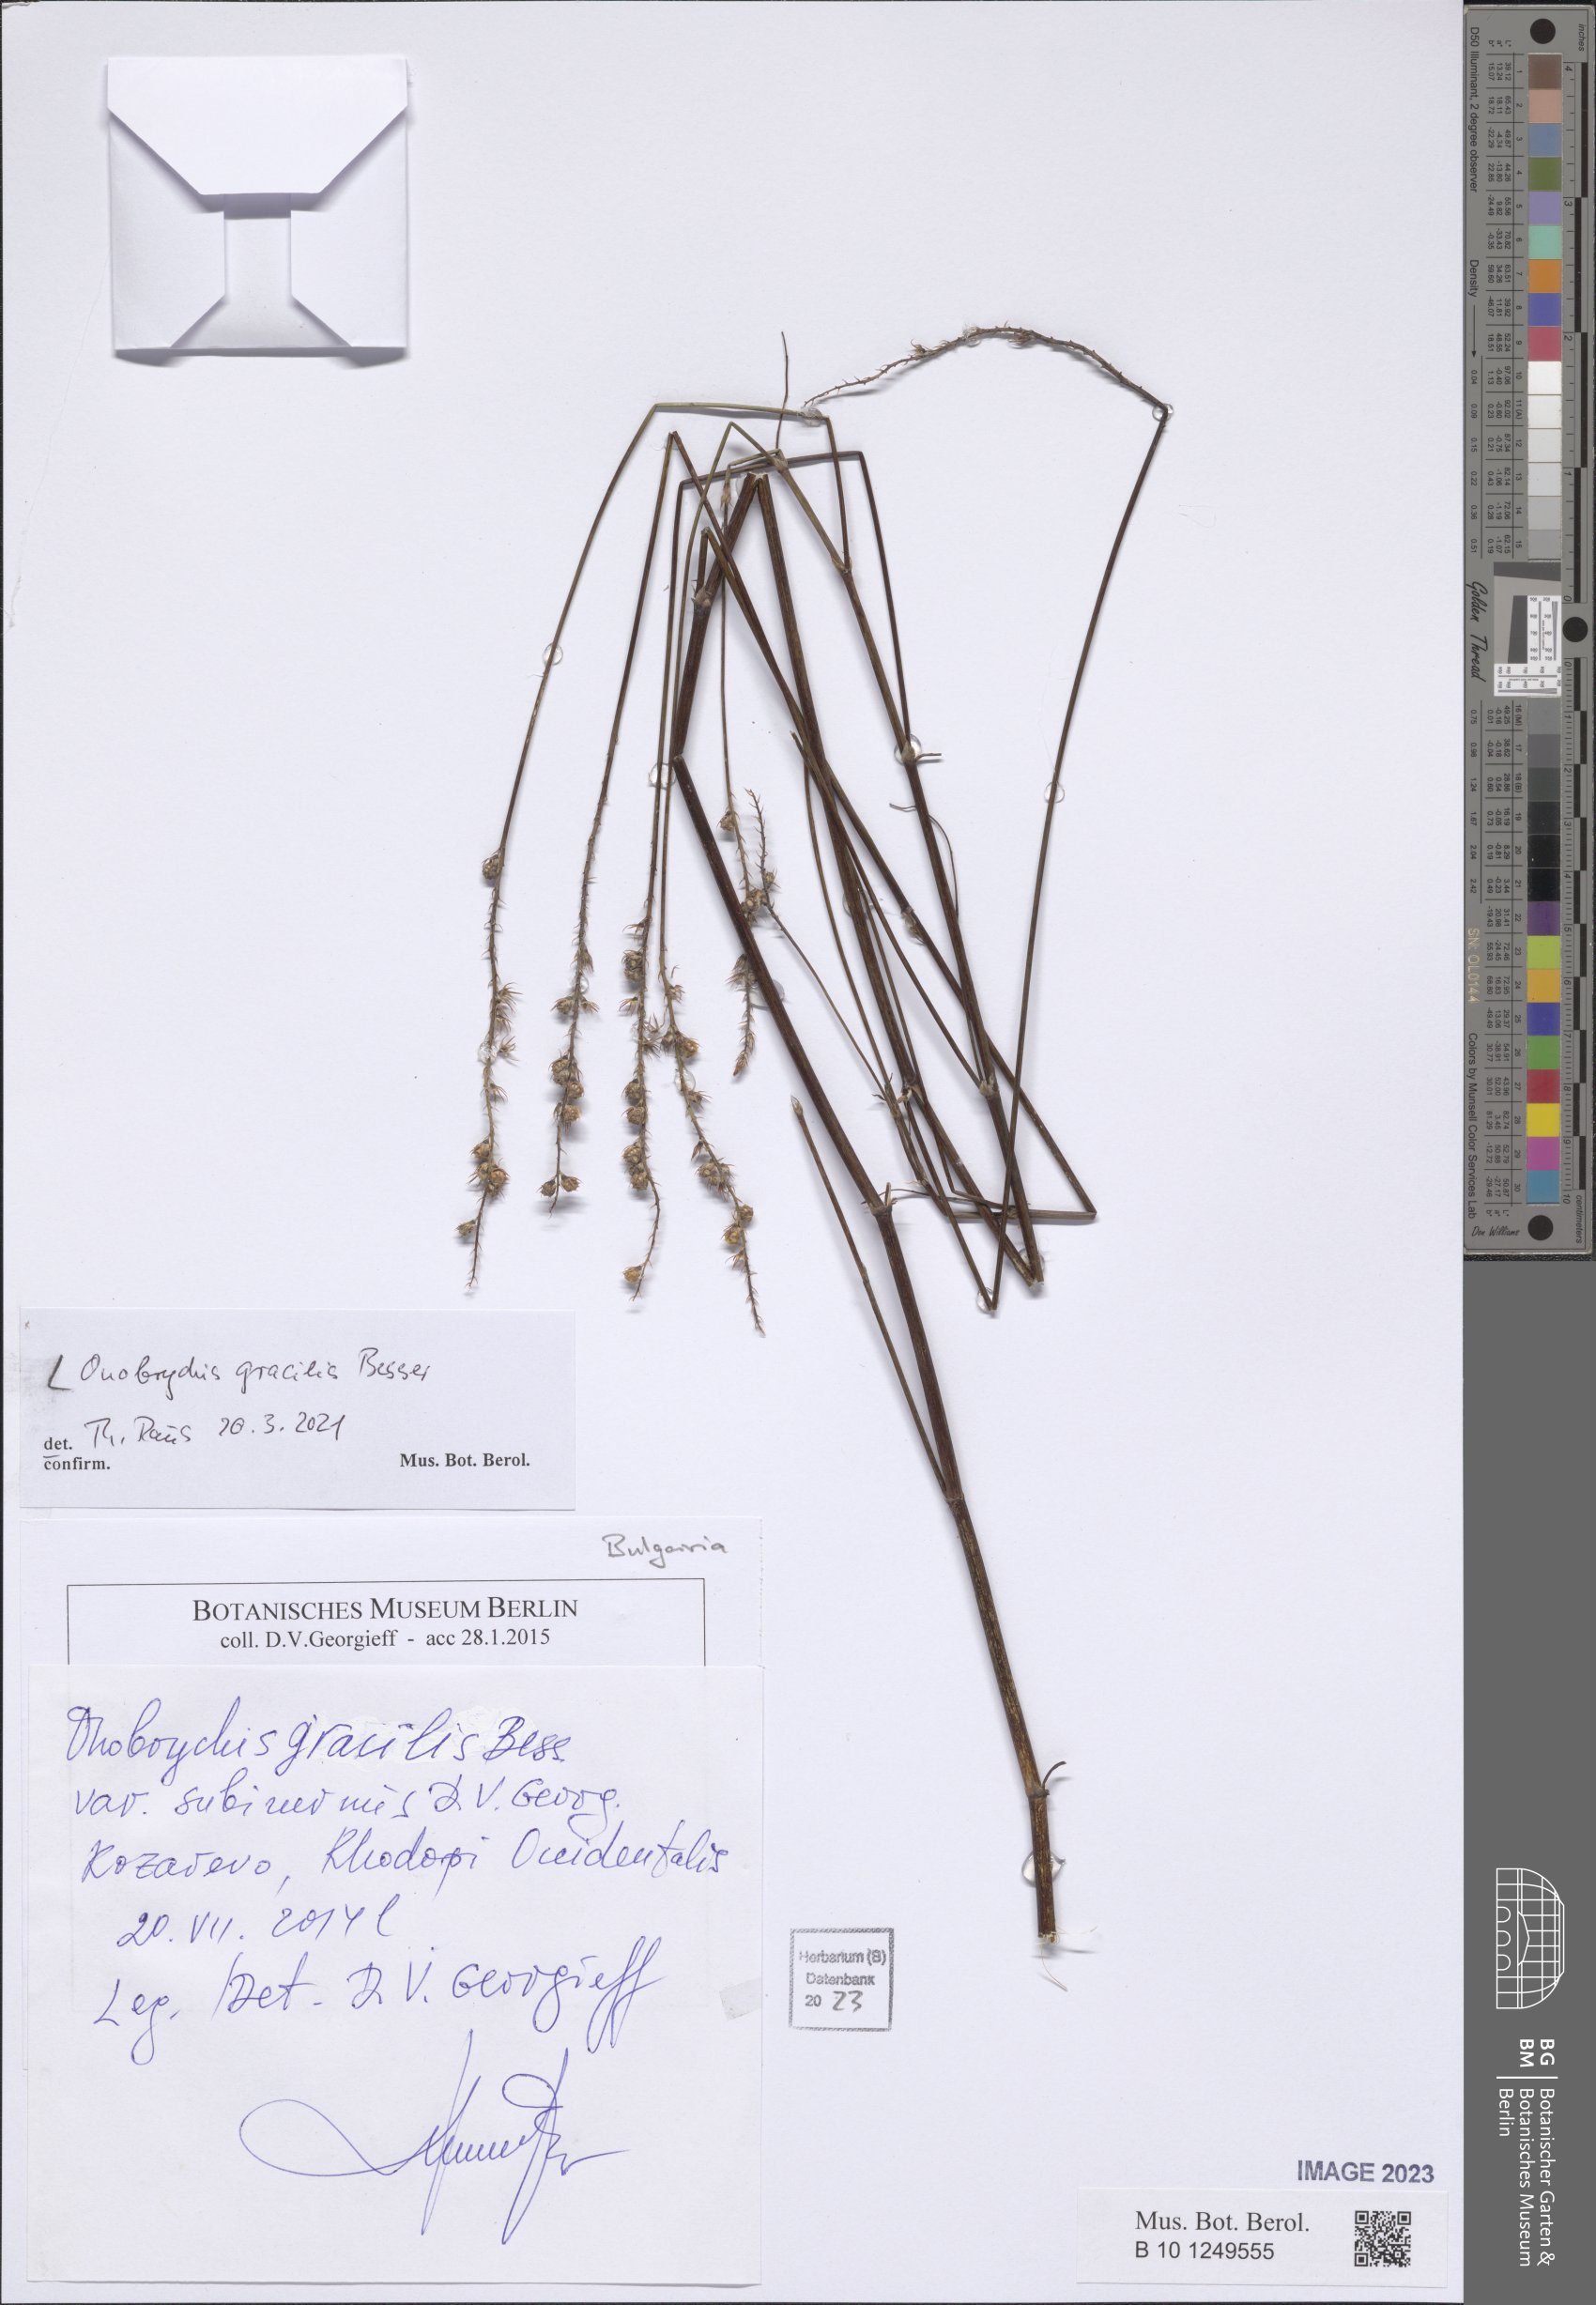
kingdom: Plantae
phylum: Tracheophyta
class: Magnoliopsida
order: Fabales
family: Fabaceae
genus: Onobrychis
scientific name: Onobrychis gracilis
